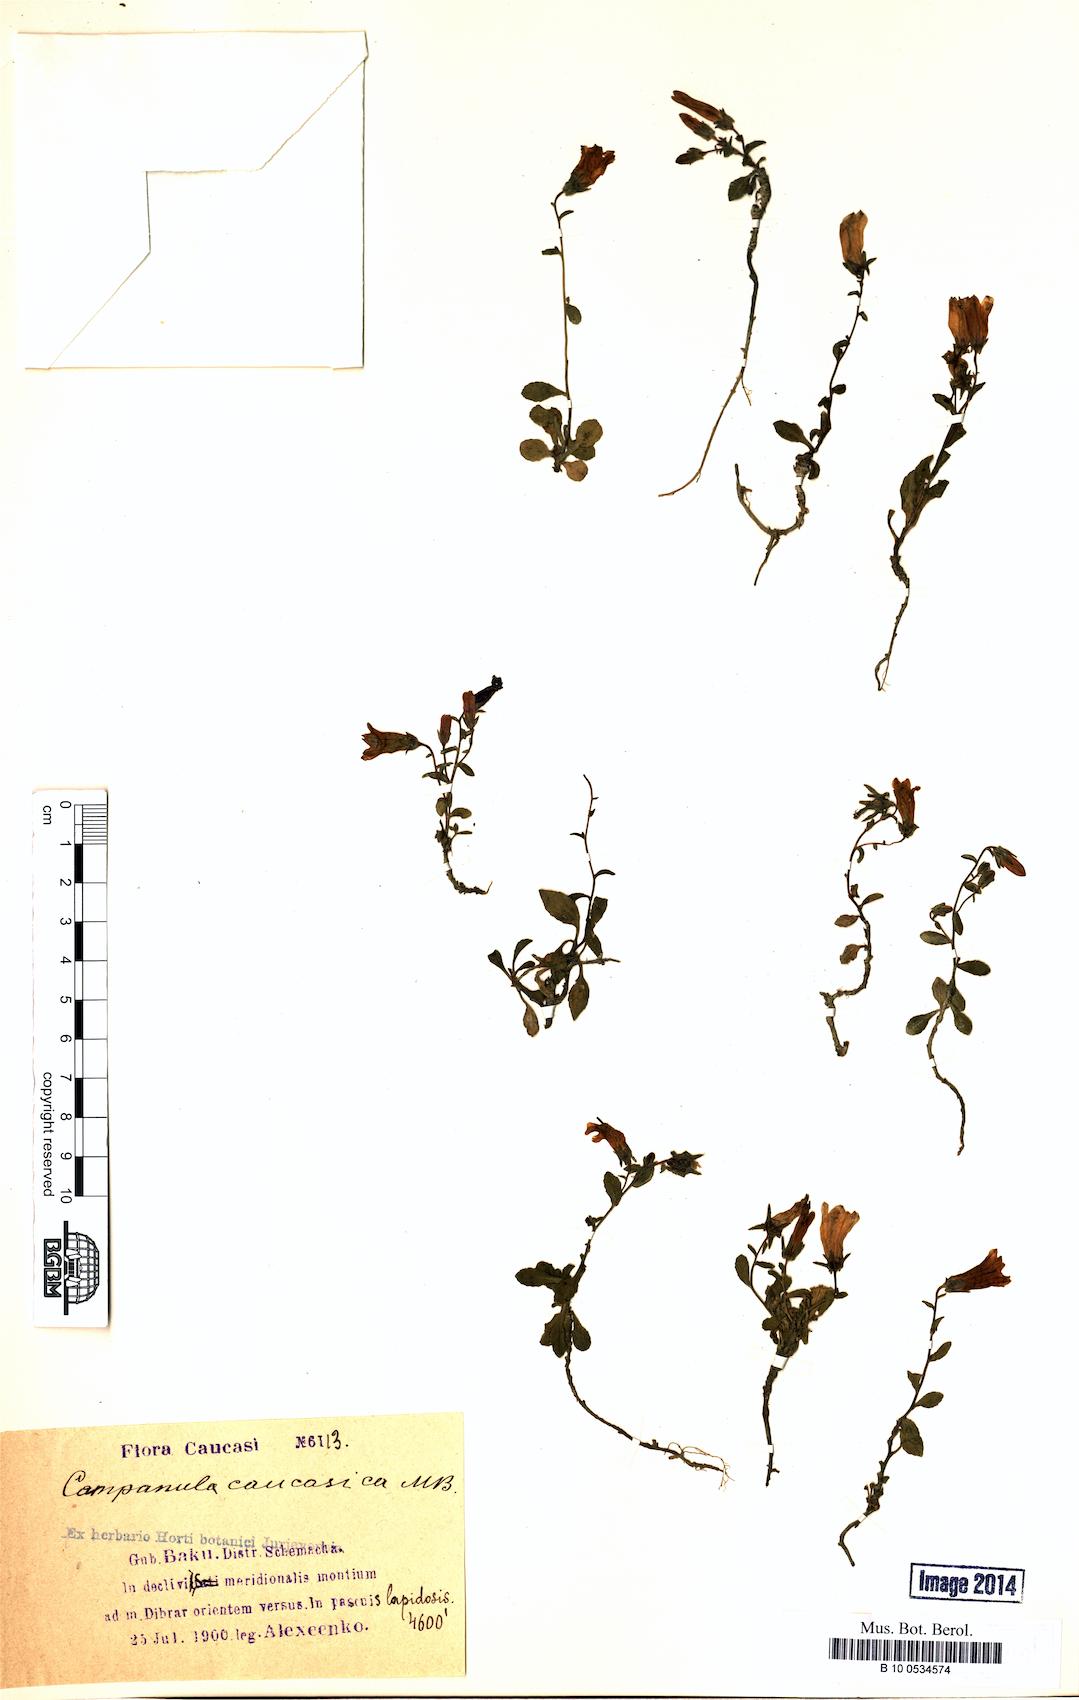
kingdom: Plantae
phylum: Tracheophyta
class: Magnoliopsida
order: Asterales
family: Campanulaceae
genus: Campanula
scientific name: Campanula caucasica
